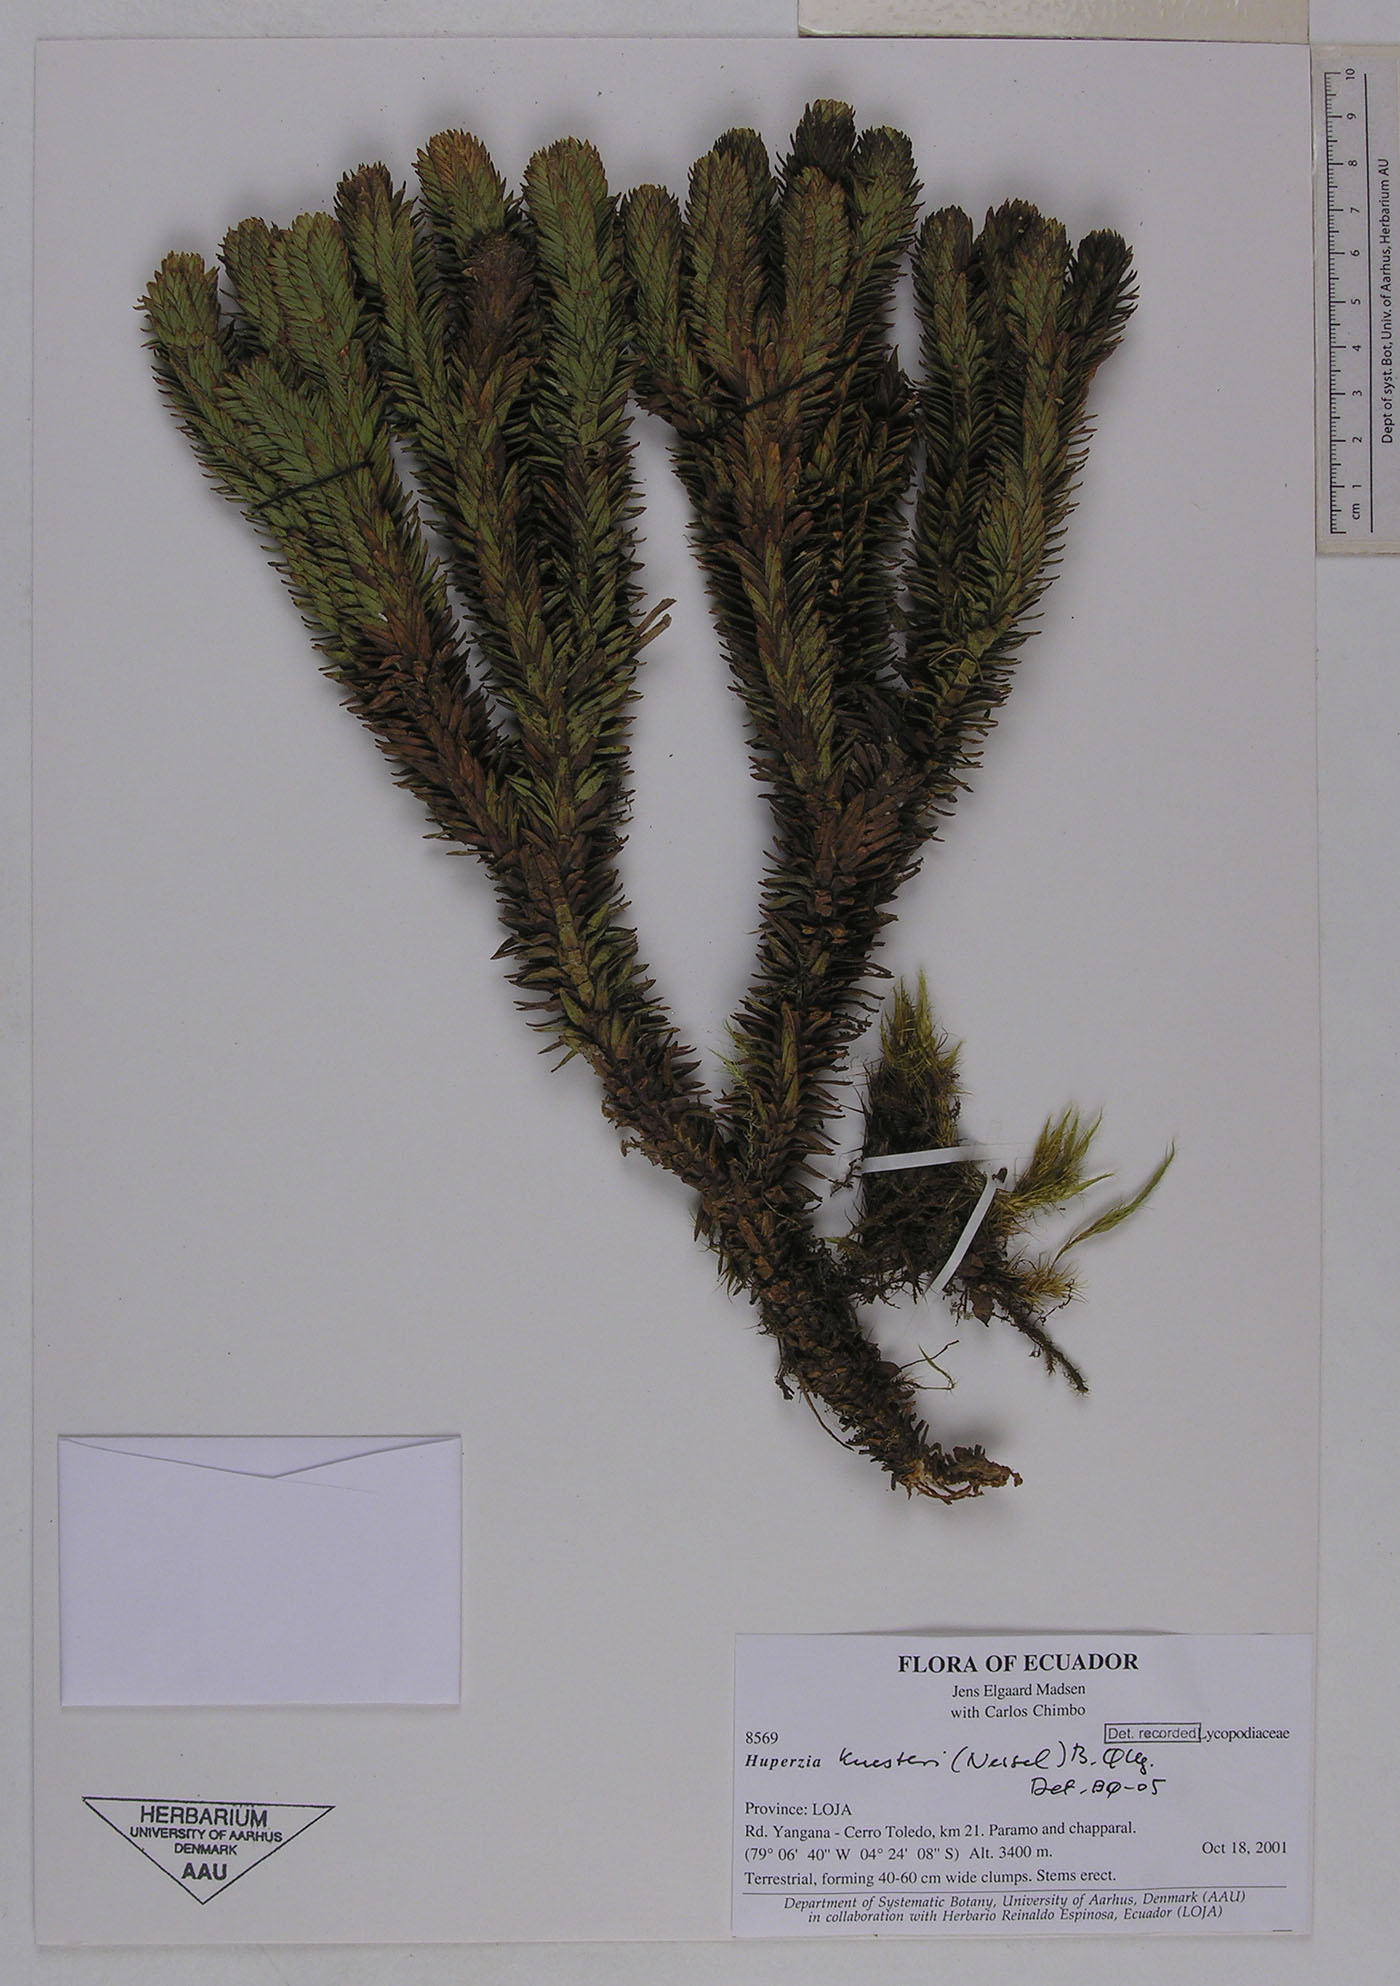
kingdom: Plantae
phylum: Tracheophyta
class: Lycopodiopsida
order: Lycopodiales
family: Lycopodiaceae
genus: Phlegmariurus
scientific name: Phlegmariurus kuesteri
